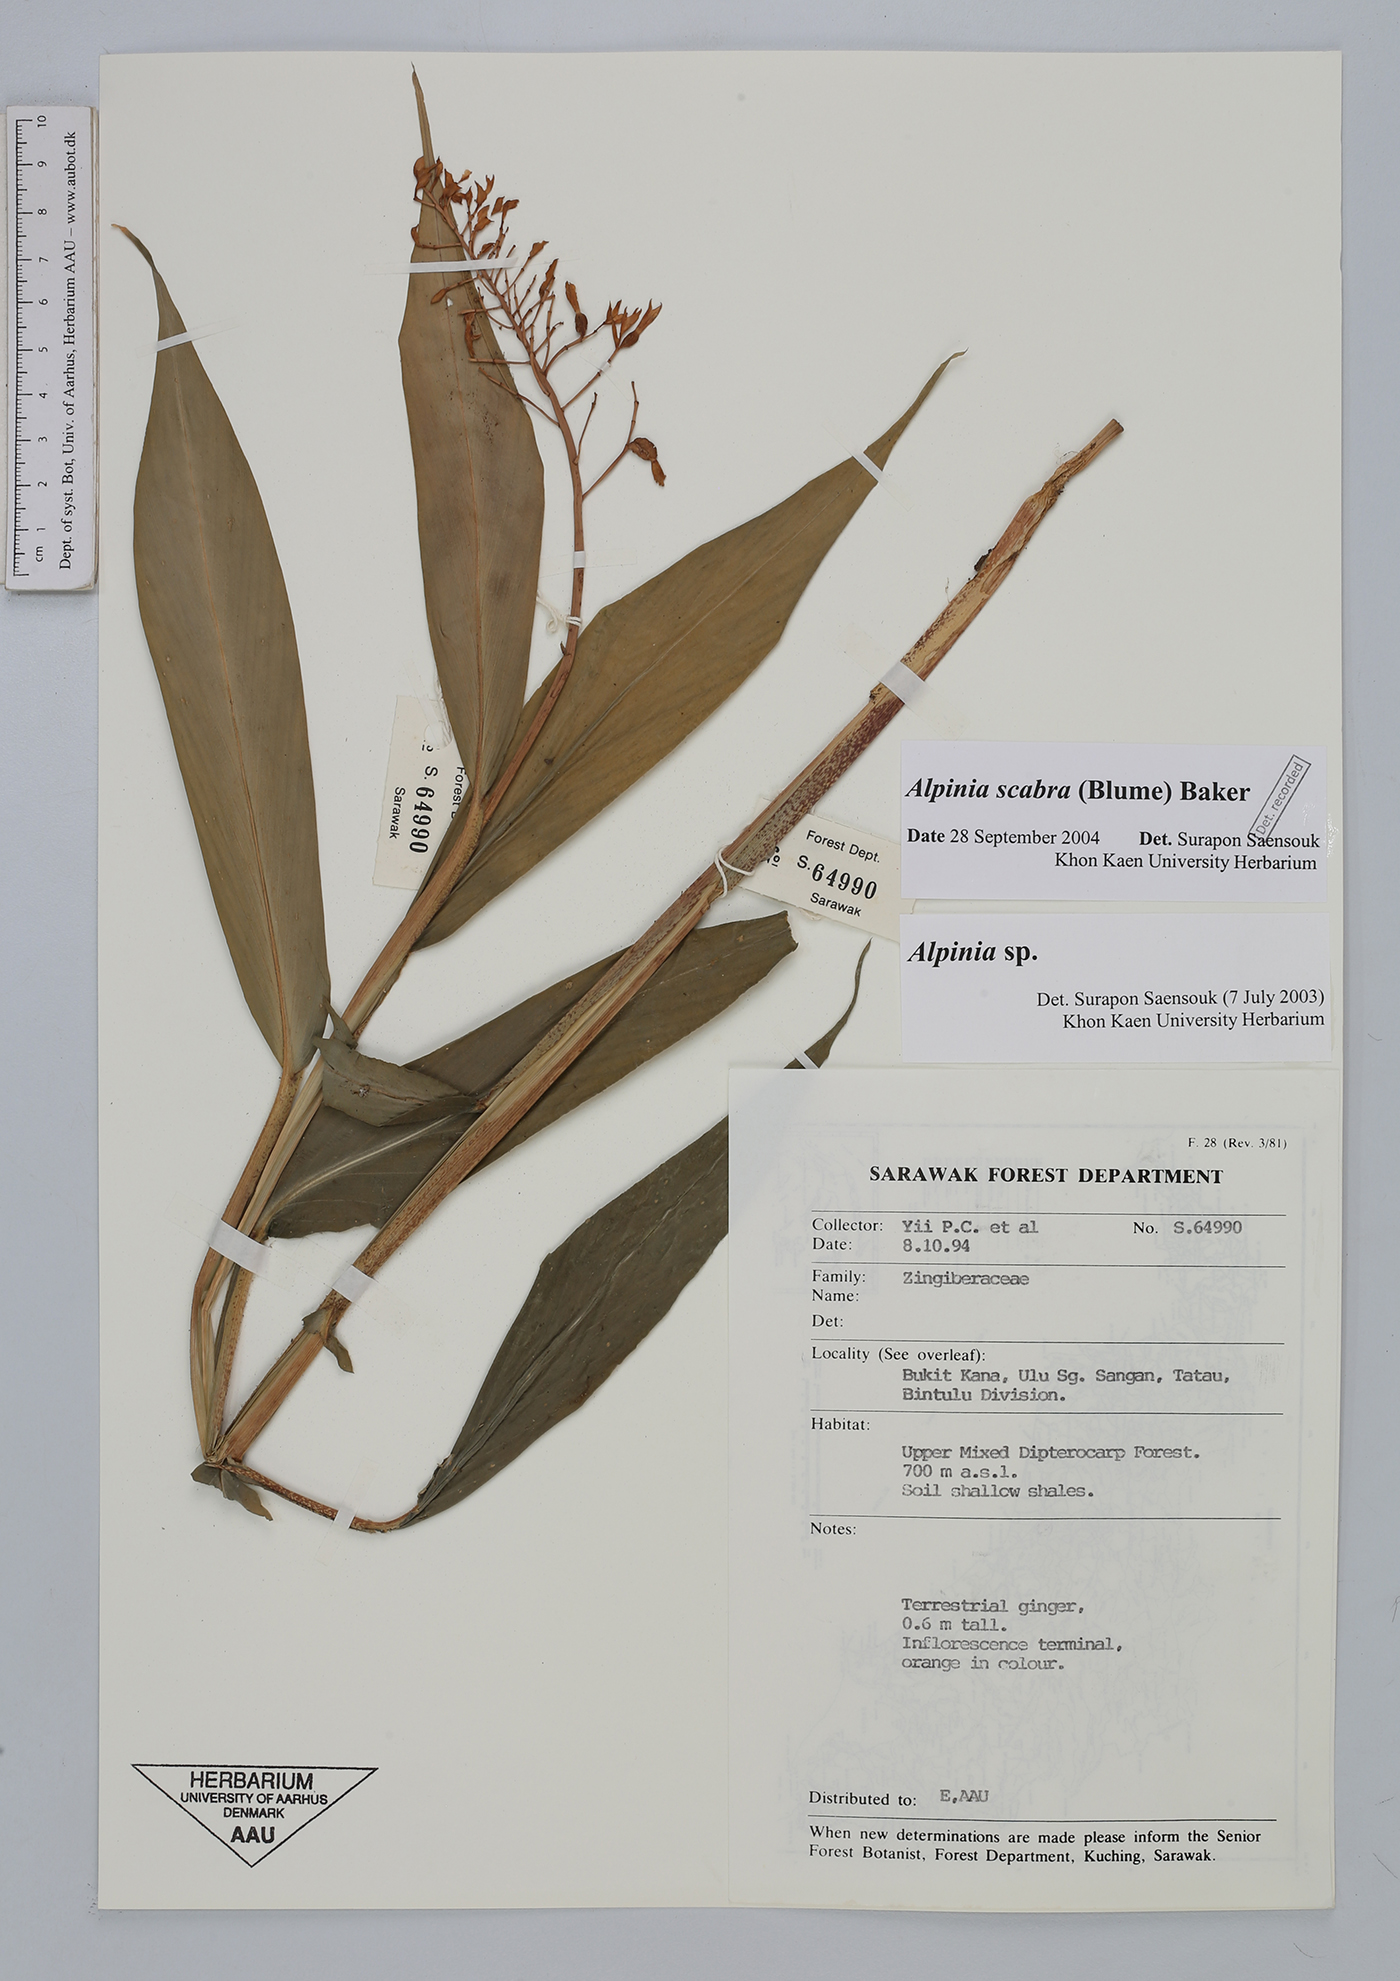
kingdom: Plantae
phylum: Tracheophyta
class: Liliopsida
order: Zingiberales
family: Zingiberaceae
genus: Alpinia
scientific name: Alpinia scabra
